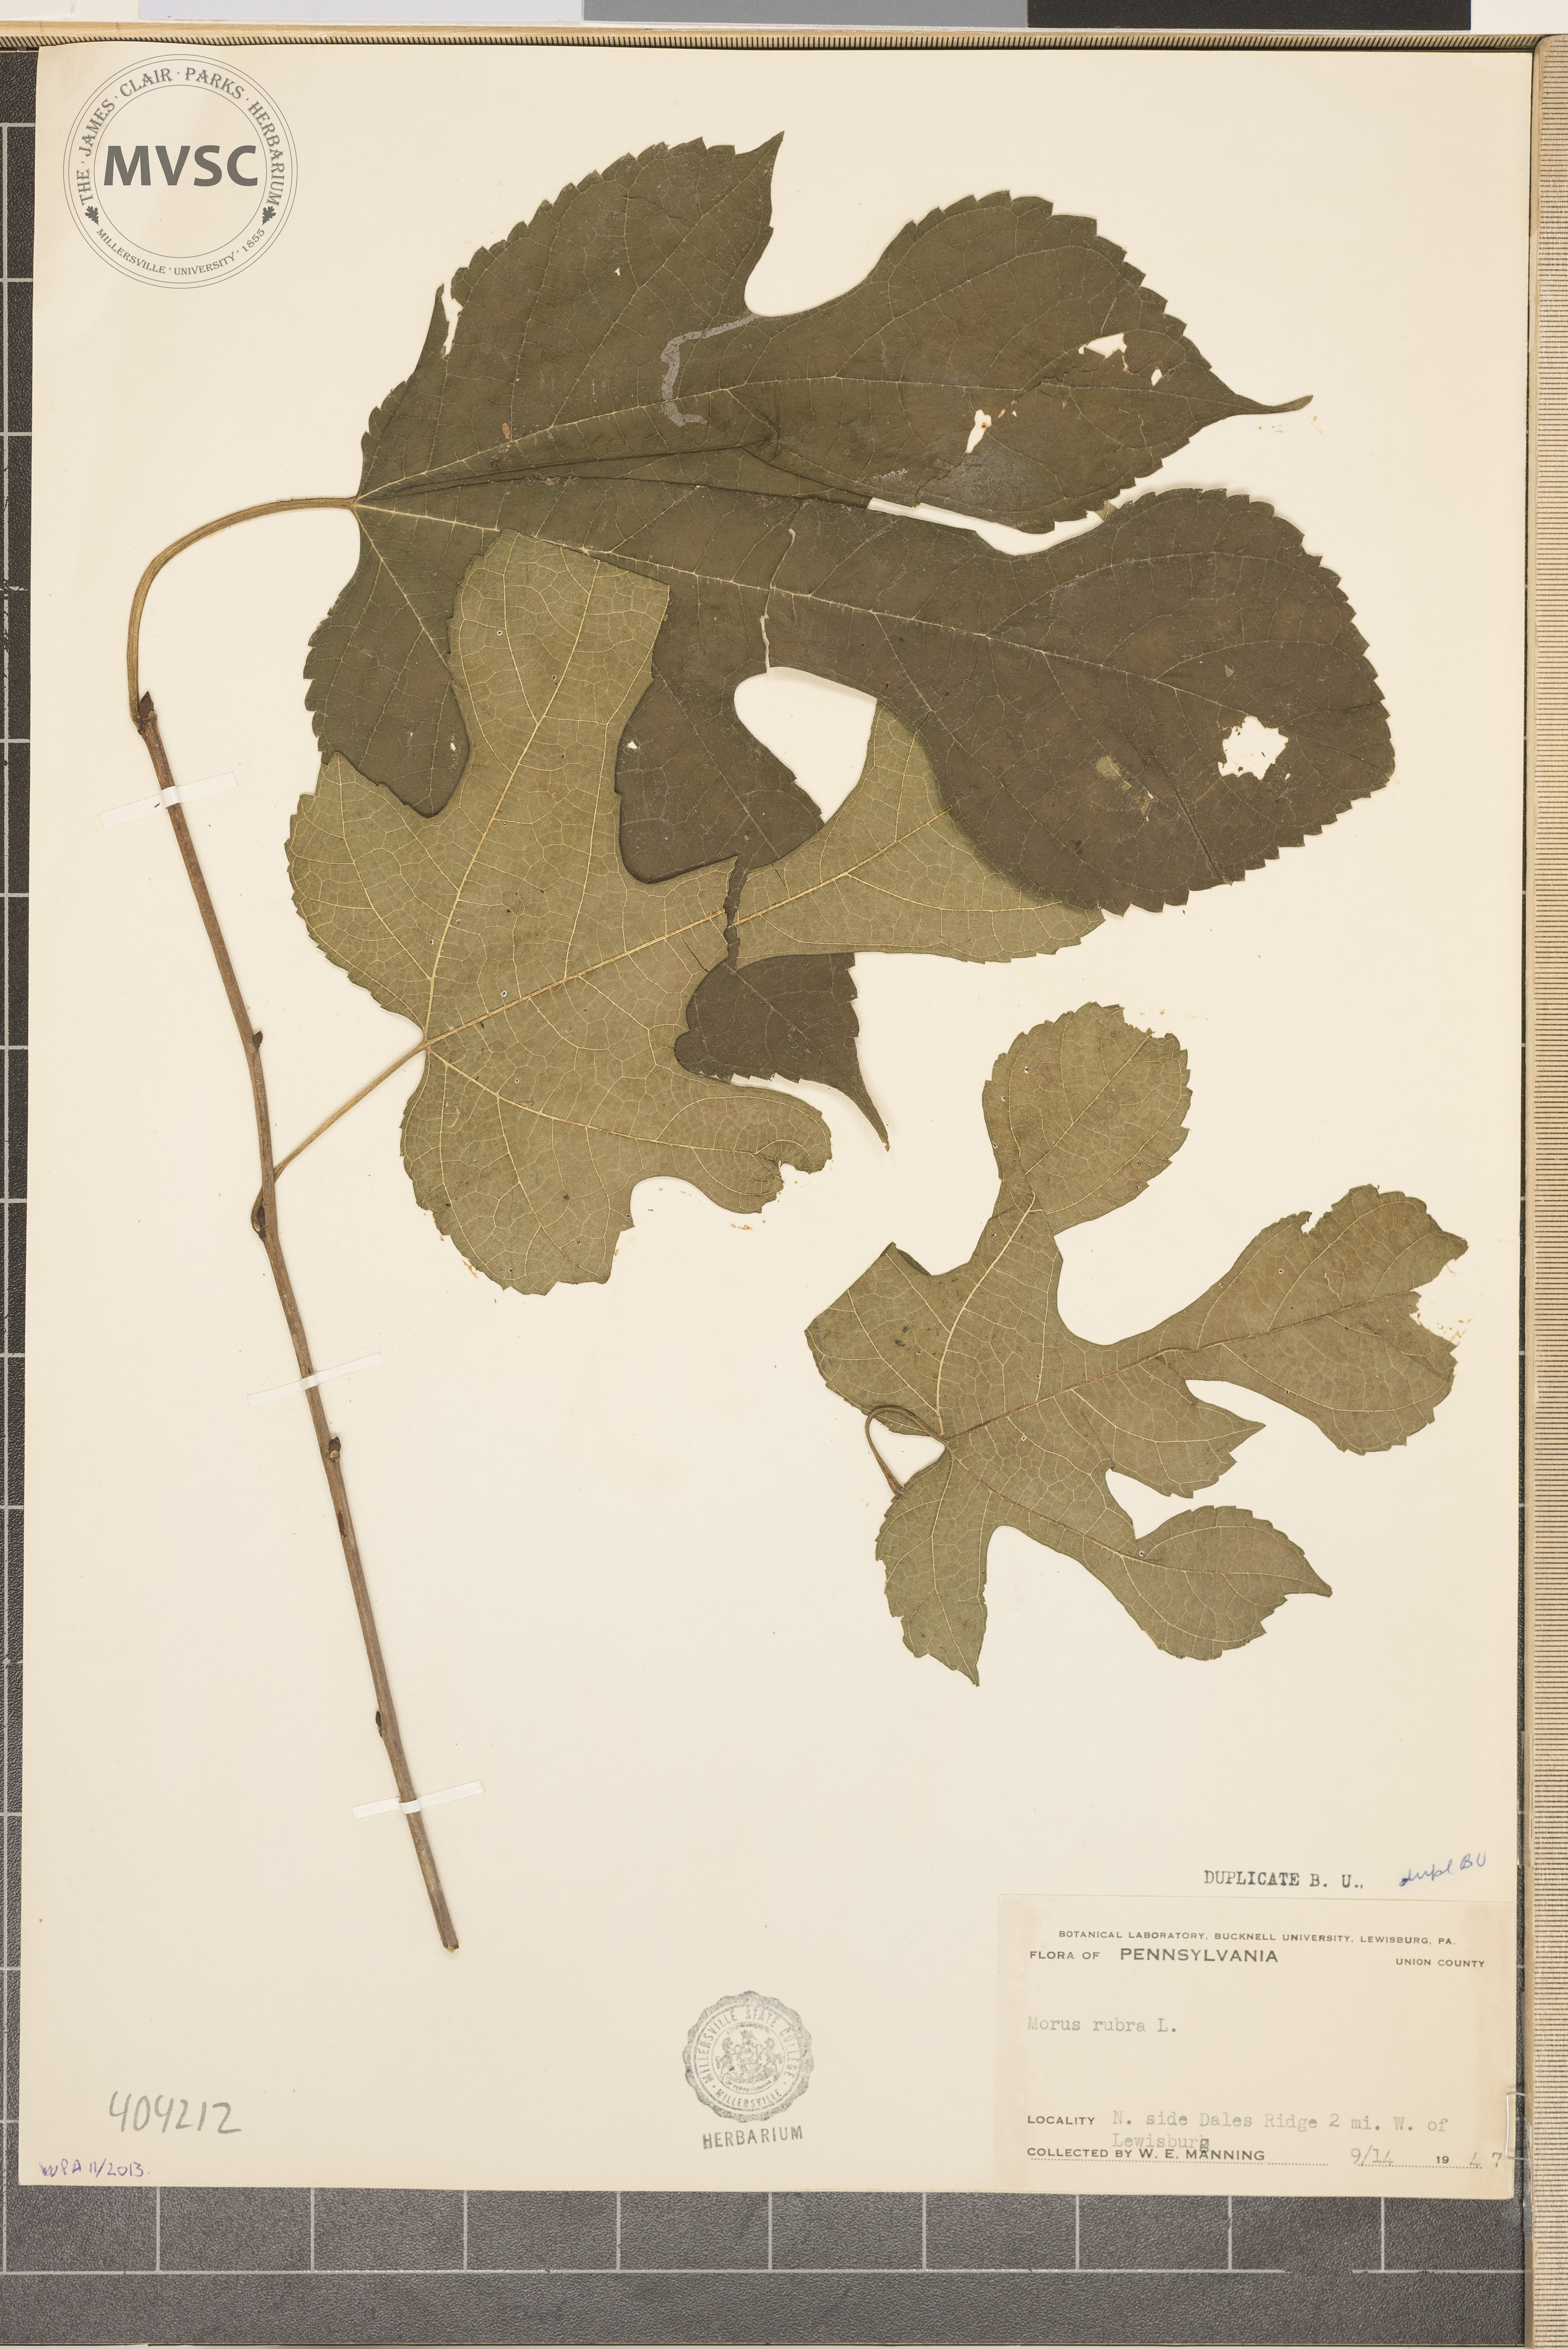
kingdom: Plantae
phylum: Tracheophyta
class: Magnoliopsida
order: Rosales
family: Moraceae
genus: Morus
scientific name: Morus rubra
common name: Red mulberry
